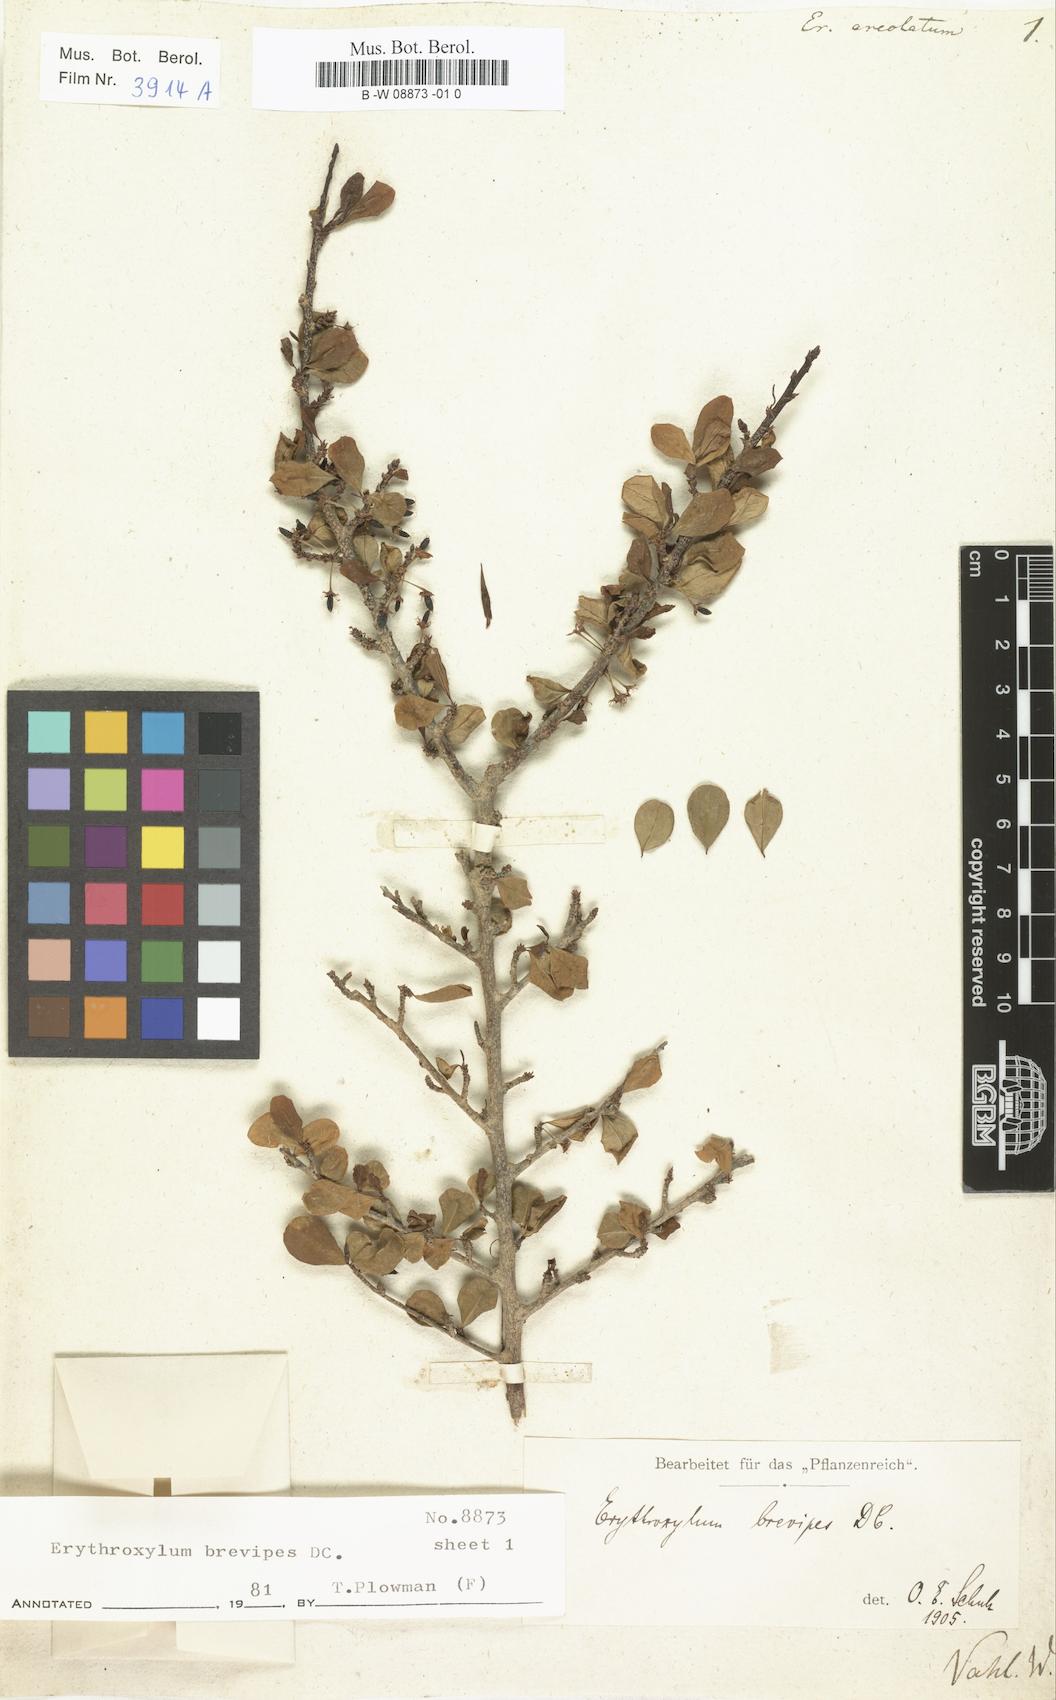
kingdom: Plantae
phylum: Tracheophyta
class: Magnoliopsida
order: Malpighiales
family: Erythroxylaceae
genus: Erythroxylum
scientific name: Erythroxylum Erythroxylon areolatum
